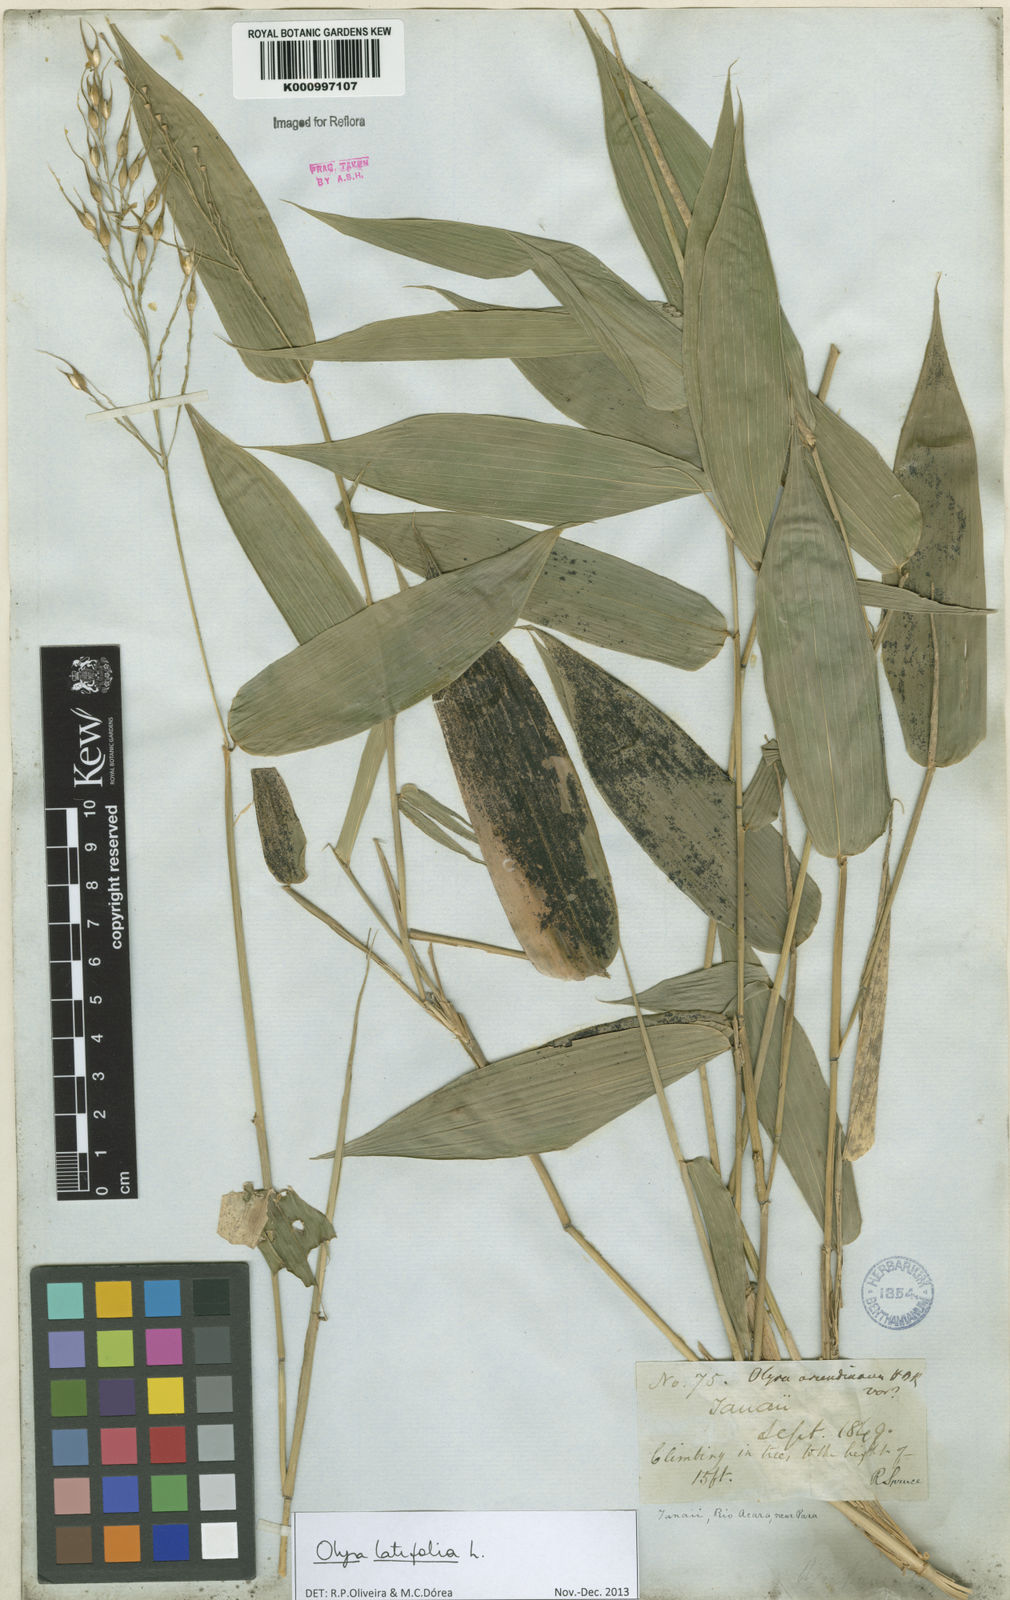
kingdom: Plantae
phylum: Tracheophyta
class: Liliopsida
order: Poales
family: Poaceae
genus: Olyra
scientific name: Olyra latifolia
